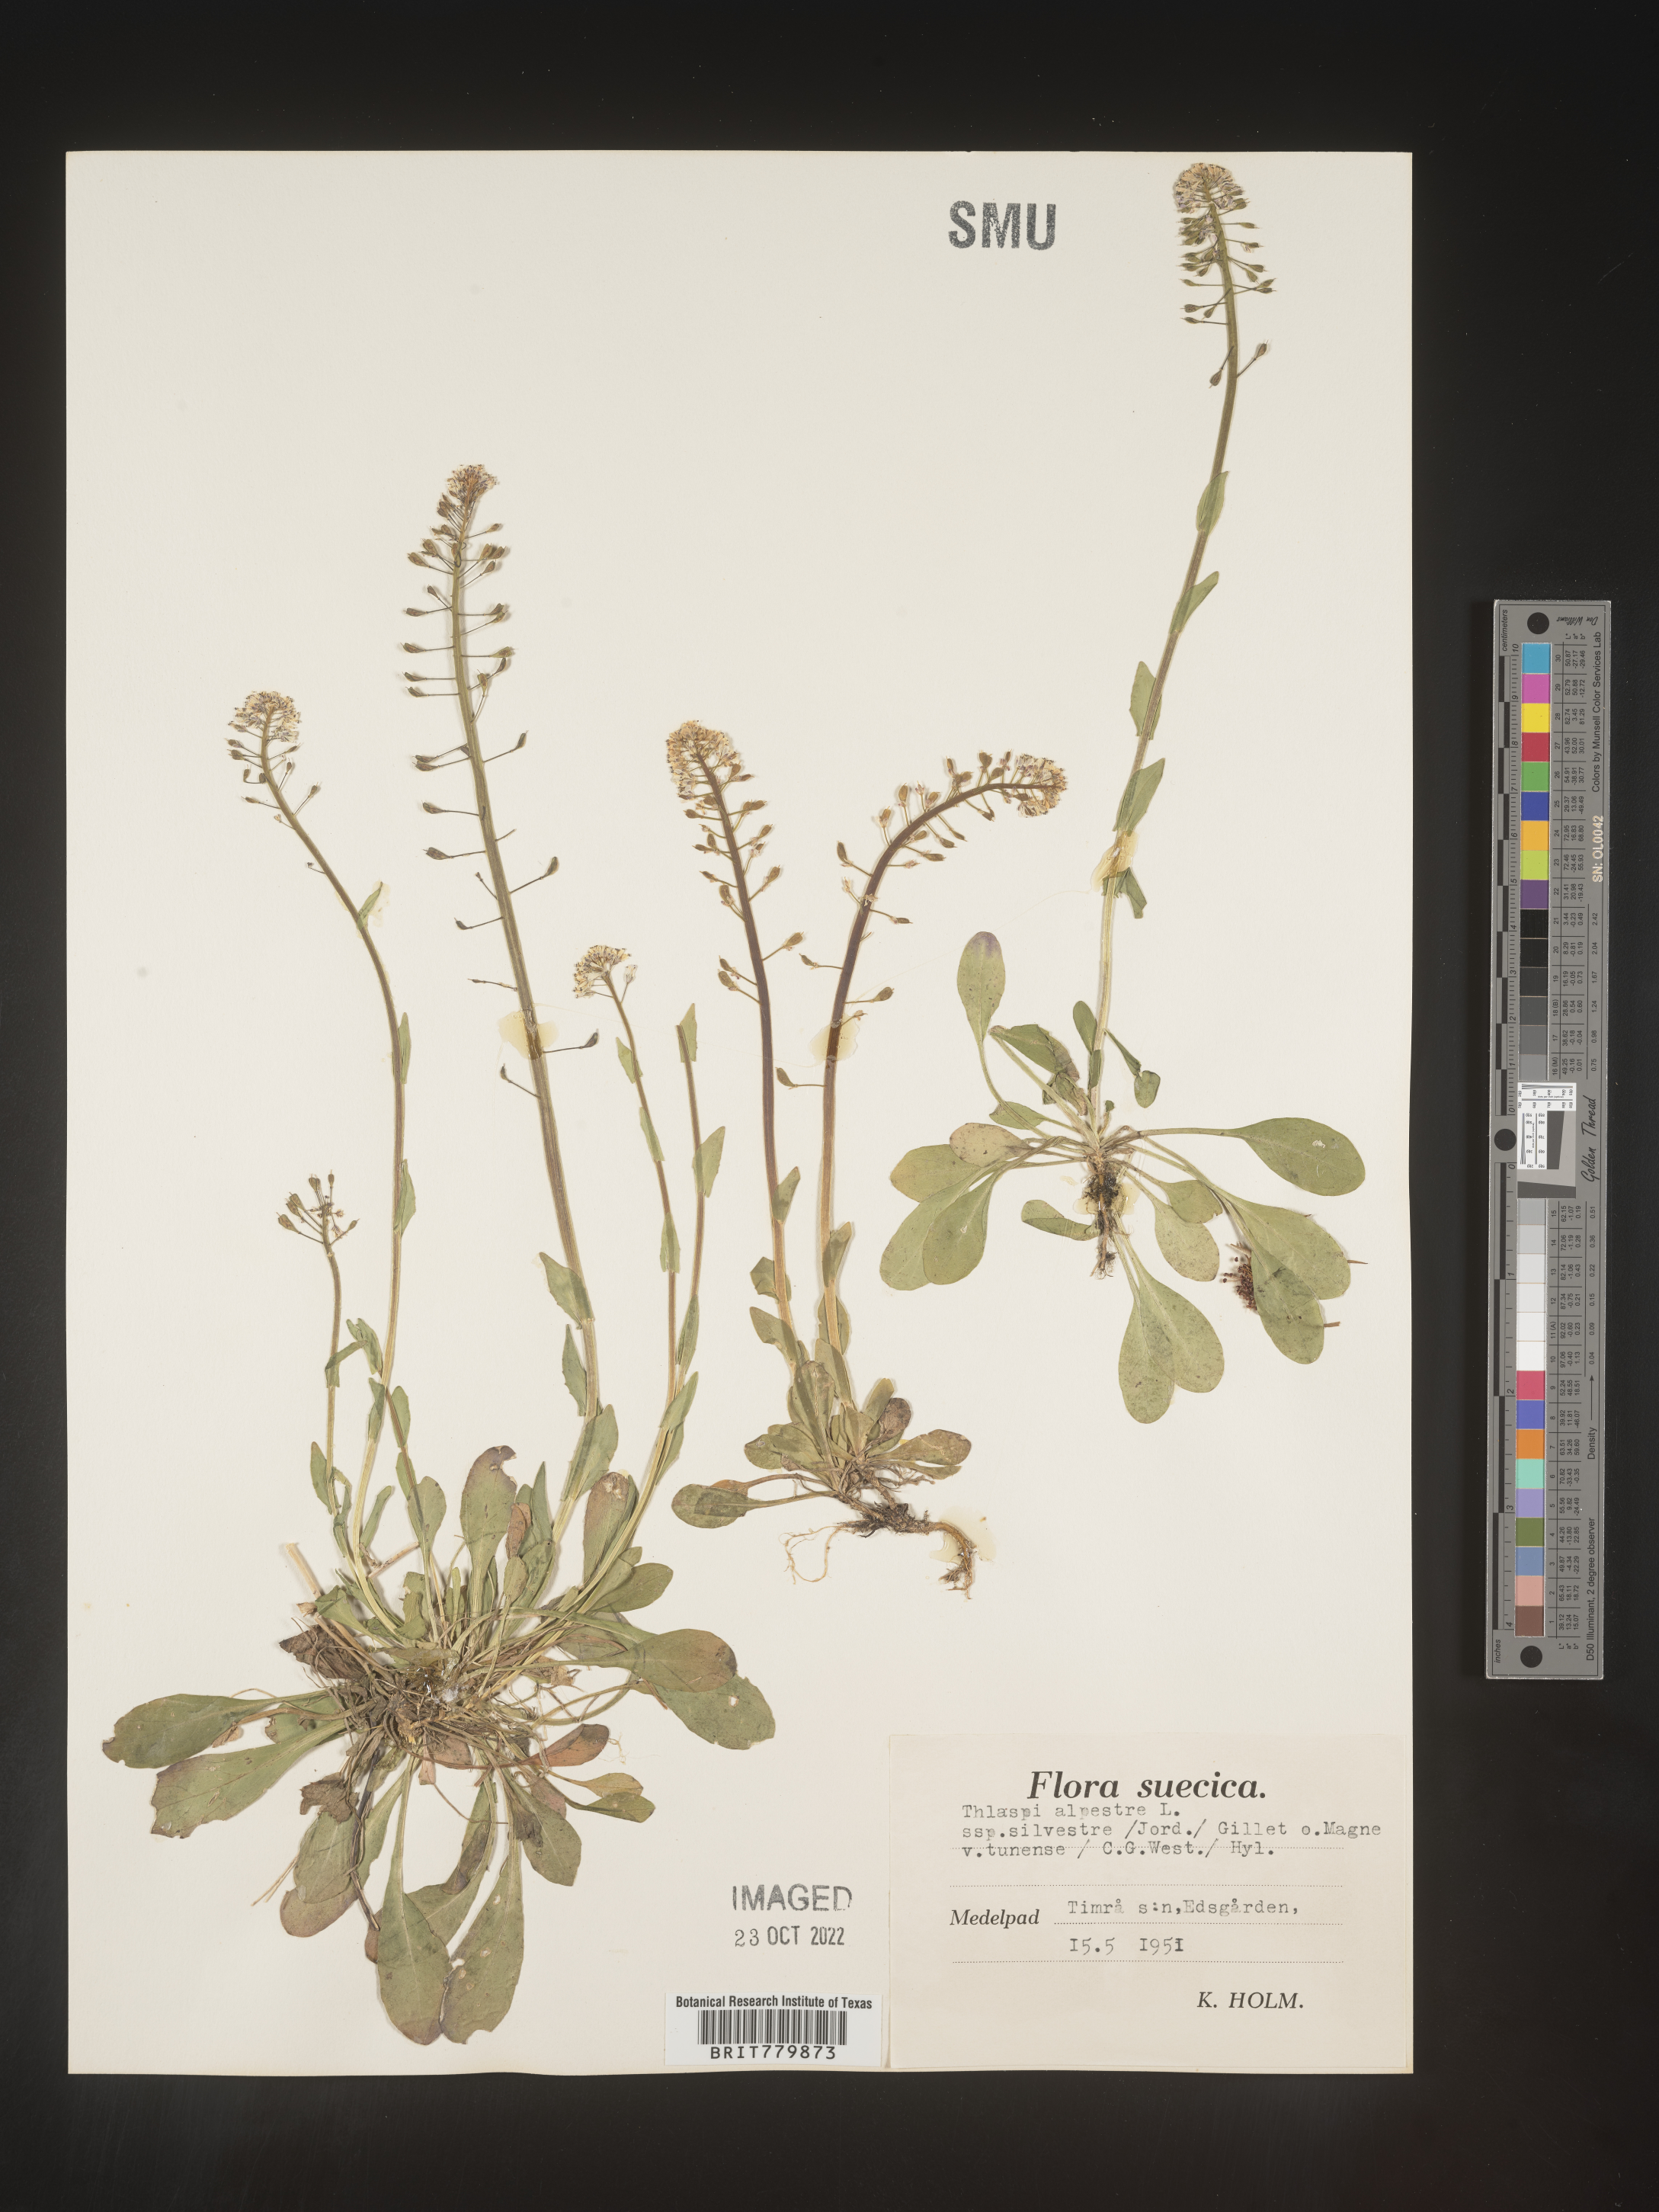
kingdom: Plantae
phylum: Tracheophyta
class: Magnoliopsida
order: Brassicales
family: Brassicaceae
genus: Thlaspi
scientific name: Thlaspi
